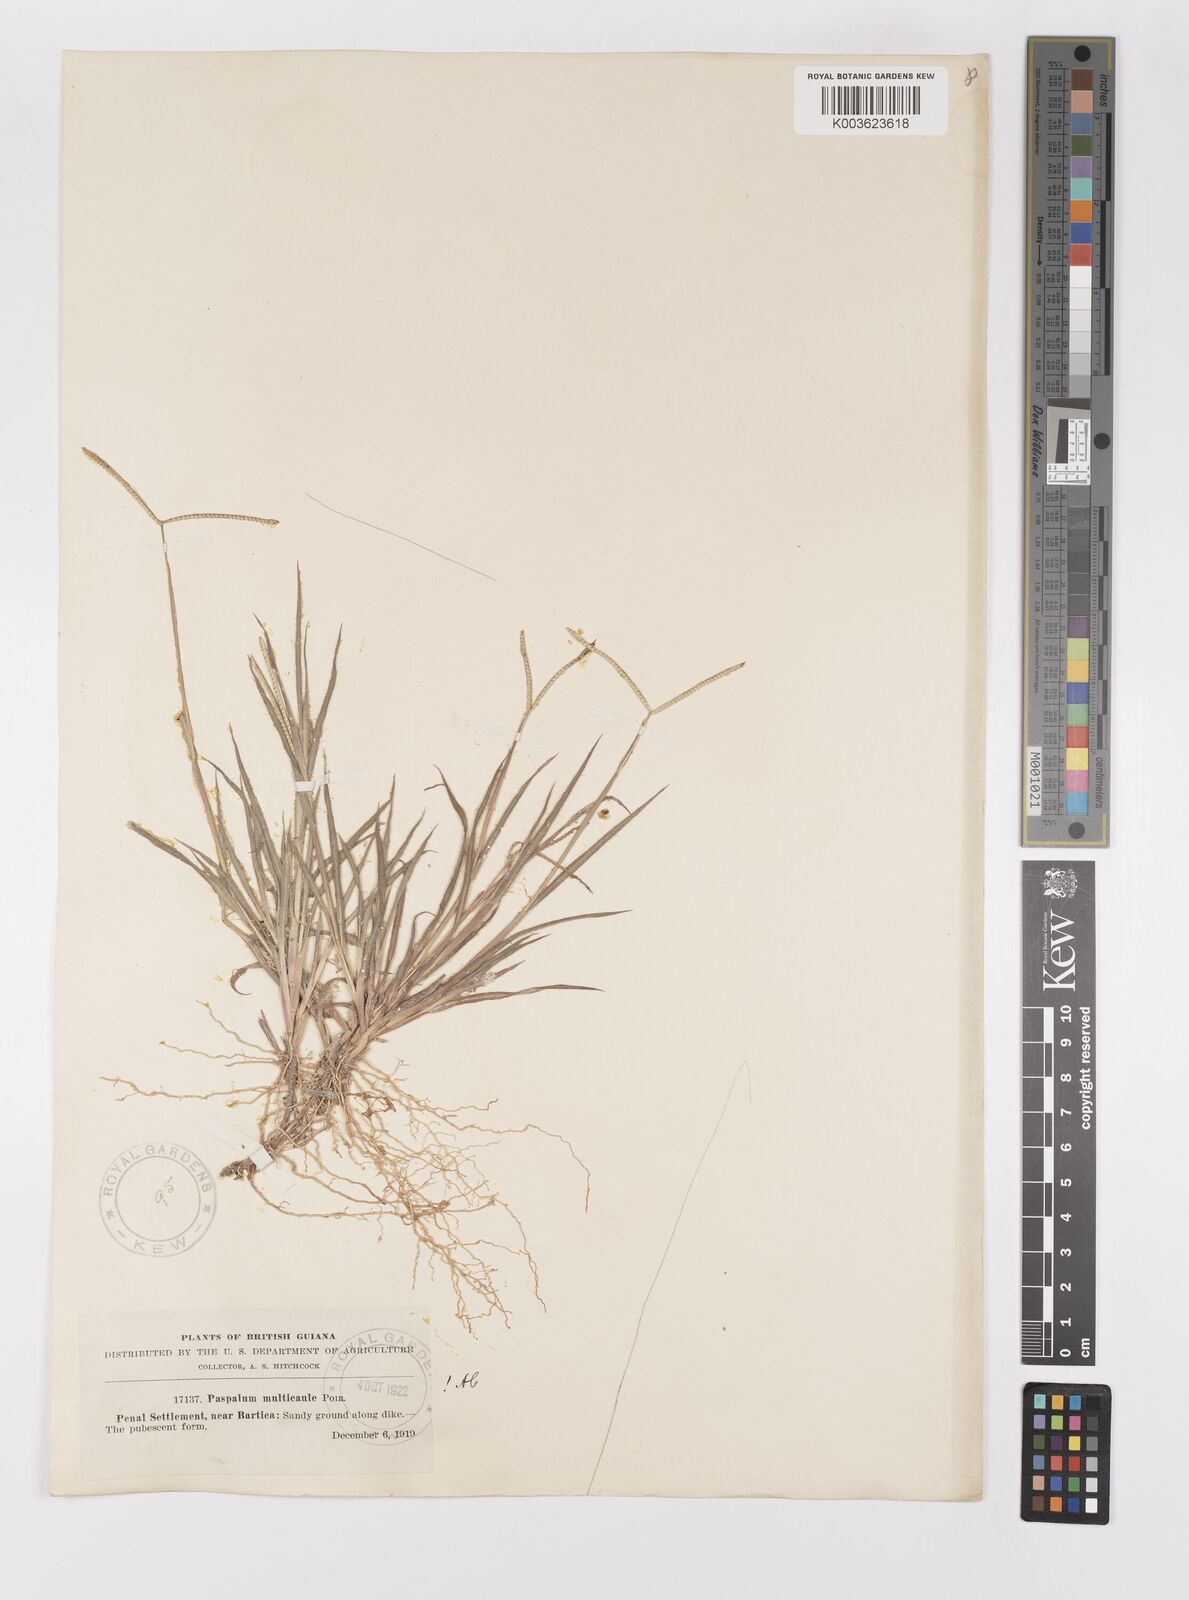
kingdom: Plantae
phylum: Tracheophyta
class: Liliopsida
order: Poales
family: Poaceae
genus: Paspalum
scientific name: Paspalum multicaule
